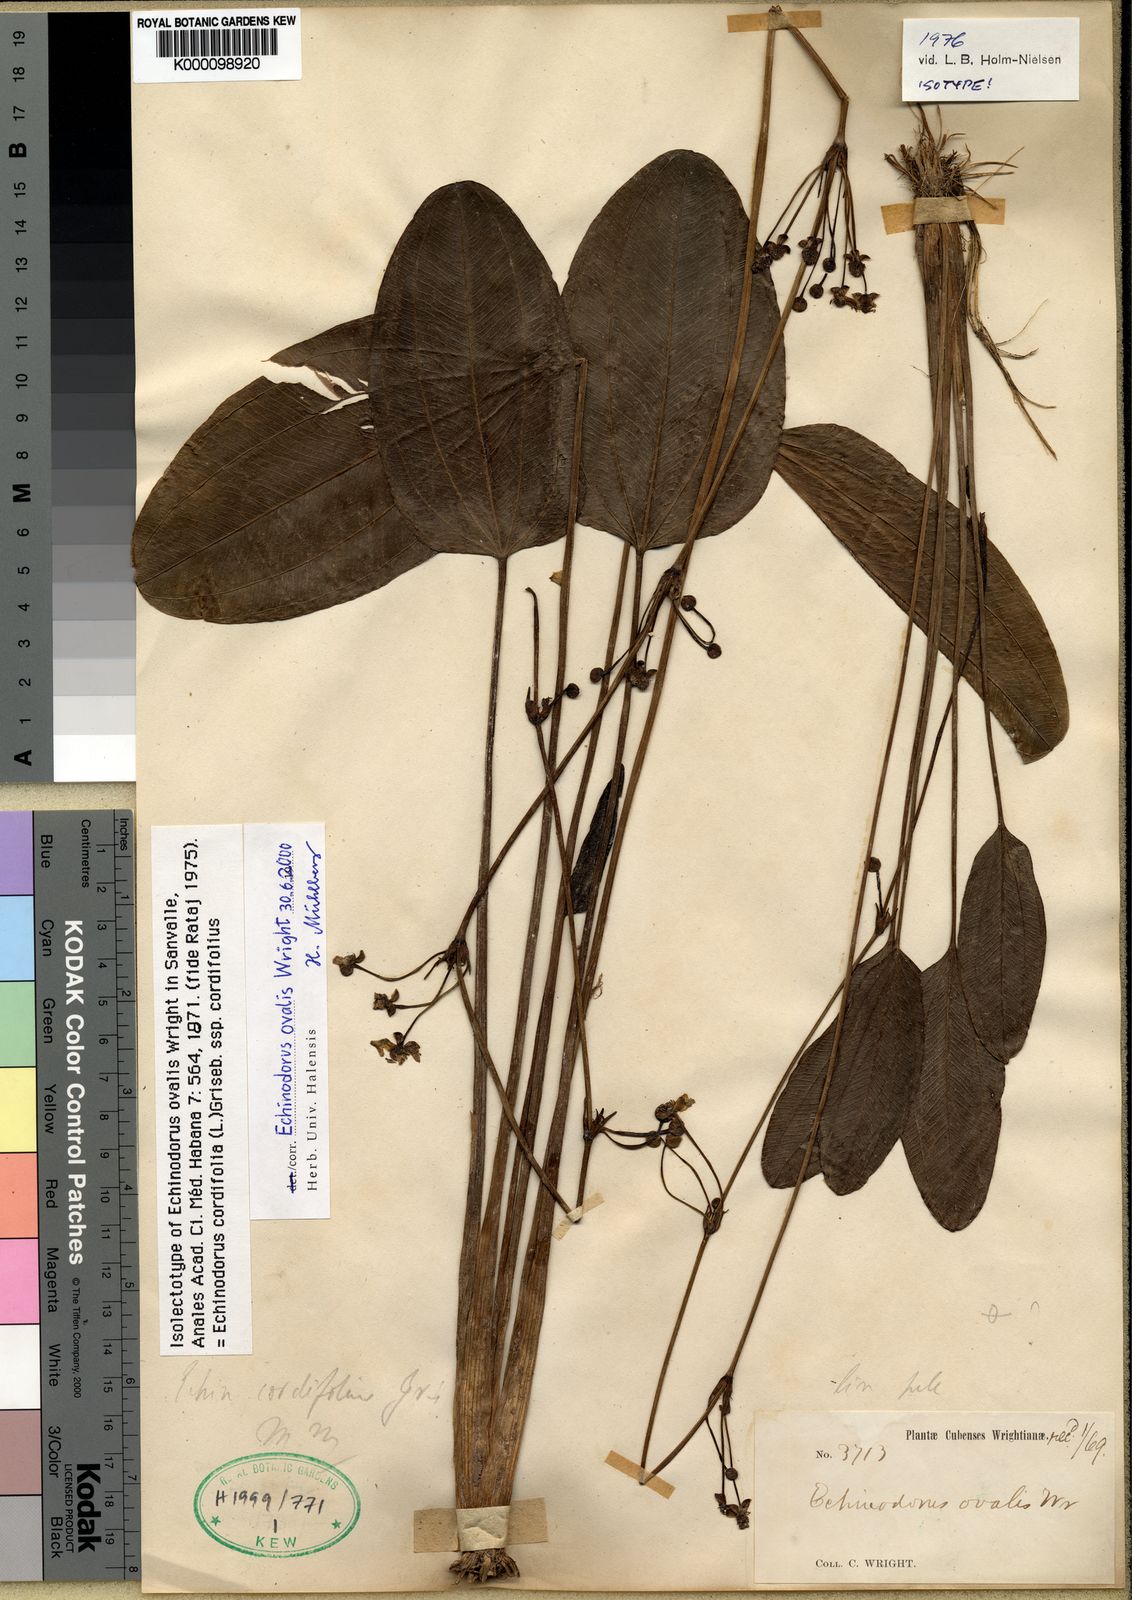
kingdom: Plantae
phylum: Tracheophyta
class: Liliopsida
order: Alismatales
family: Alismataceae
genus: Aquarius
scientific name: Aquarius cordifolius
